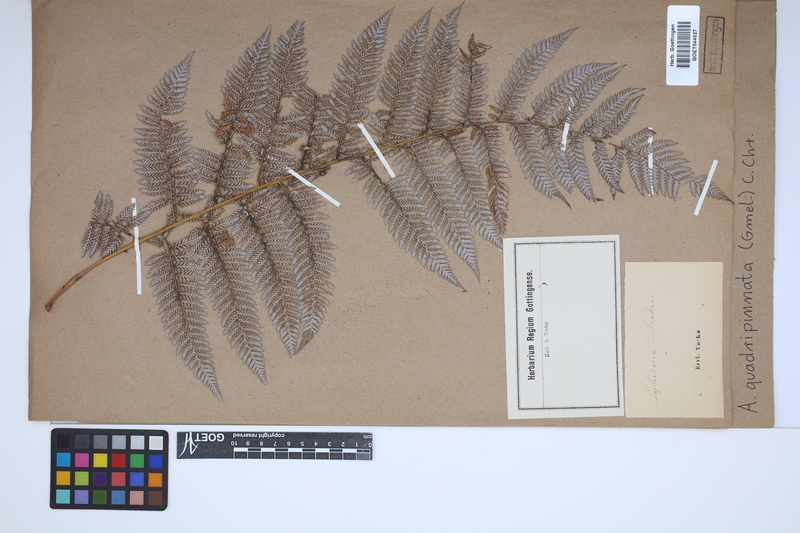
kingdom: Plantae
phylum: Tracheophyta
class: Polypodiopsida
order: Cyatheales
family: Dicksoniaceae
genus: Lophosoria
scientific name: Lophosoria quadripinnata
